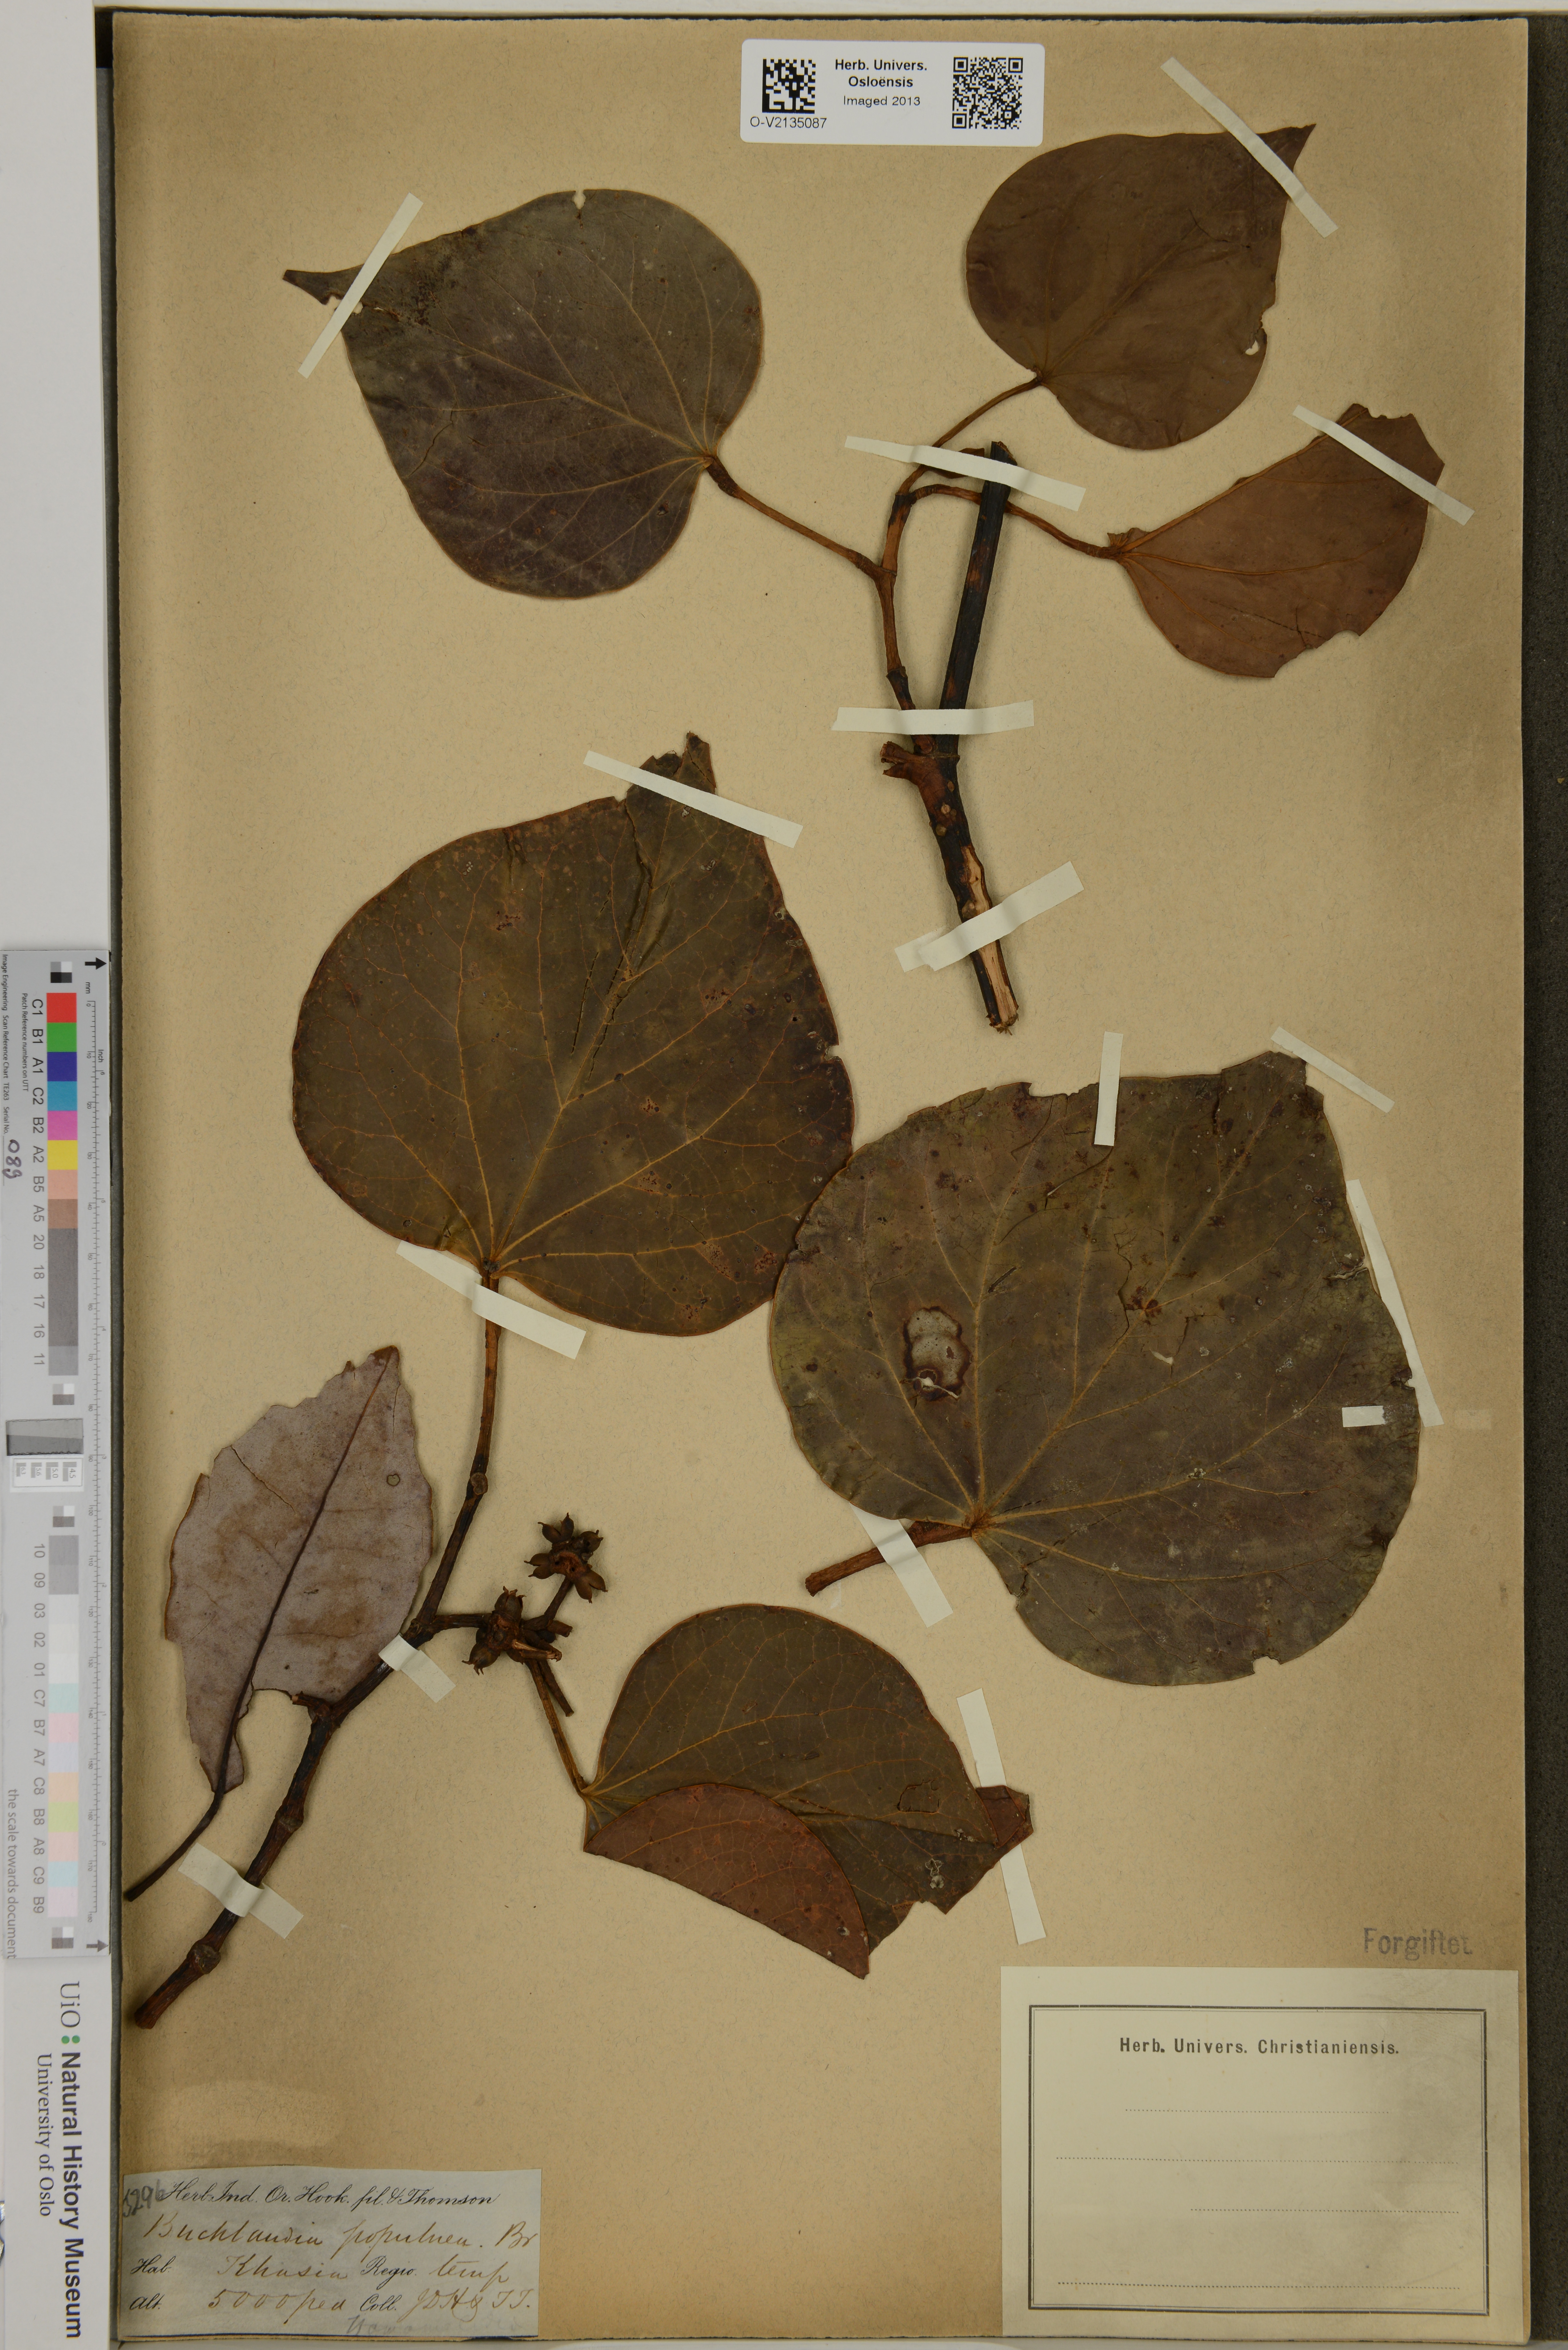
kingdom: Plantae
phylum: Tracheophyta
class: Magnoliopsida
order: Saxifragales
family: Hamamelidaceae
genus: Exbucklandia
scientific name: Exbucklandia populnea
